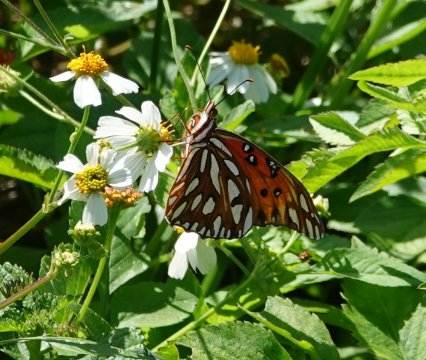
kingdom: Animalia
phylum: Arthropoda
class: Insecta
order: Lepidoptera
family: Nymphalidae
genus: Dione
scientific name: Dione vanillae
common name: Gulf Fritillary
